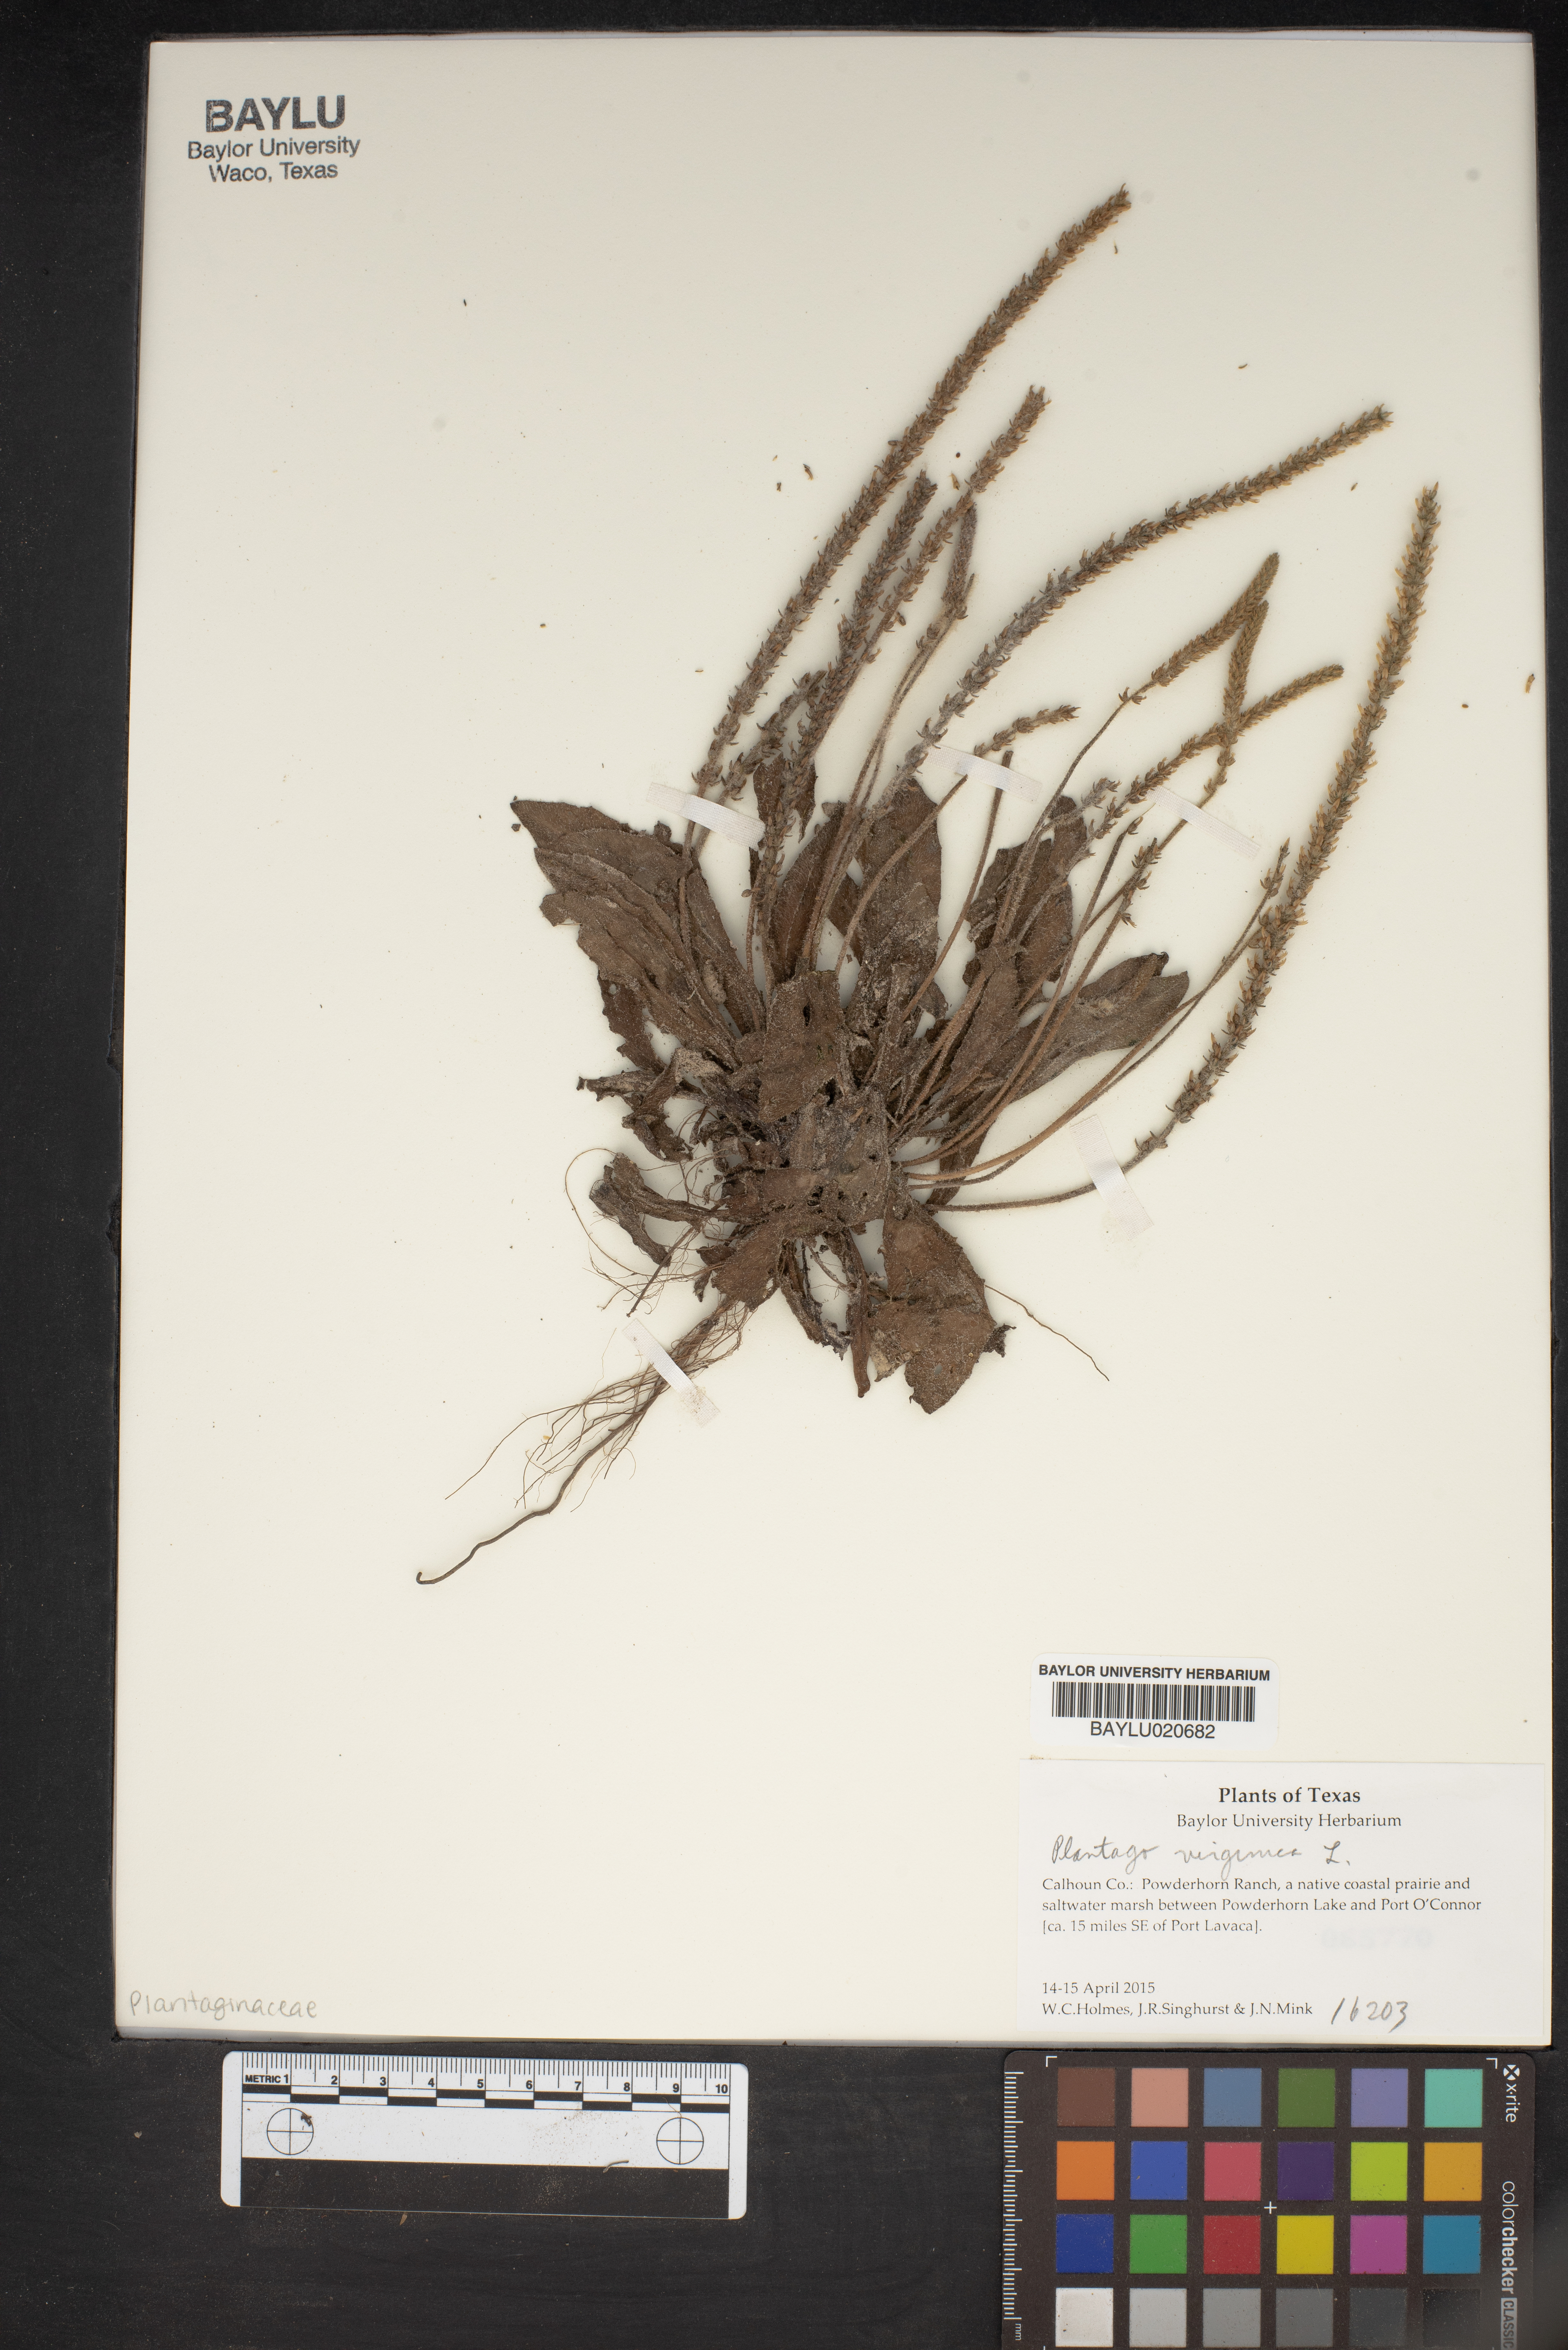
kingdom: Plantae
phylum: Tracheophyta
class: Magnoliopsida
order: Lamiales
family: Plantaginaceae
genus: Plantago
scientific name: Plantago virginica
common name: Hoary plantain
